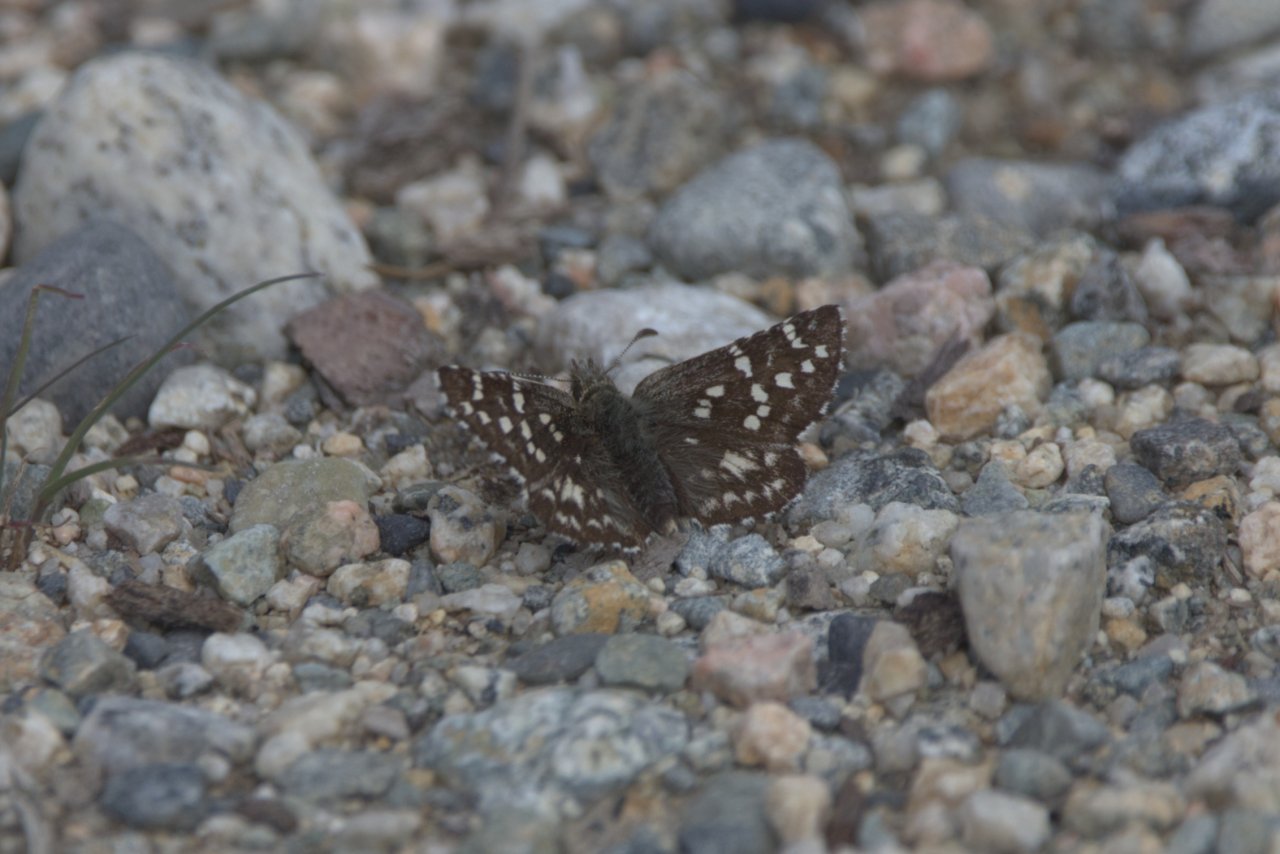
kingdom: Animalia
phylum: Arthropoda
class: Insecta
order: Lepidoptera
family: Hesperiidae
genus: Pyrgus
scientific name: Pyrgus ruralis
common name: Two-banded Checkered-Skipper
